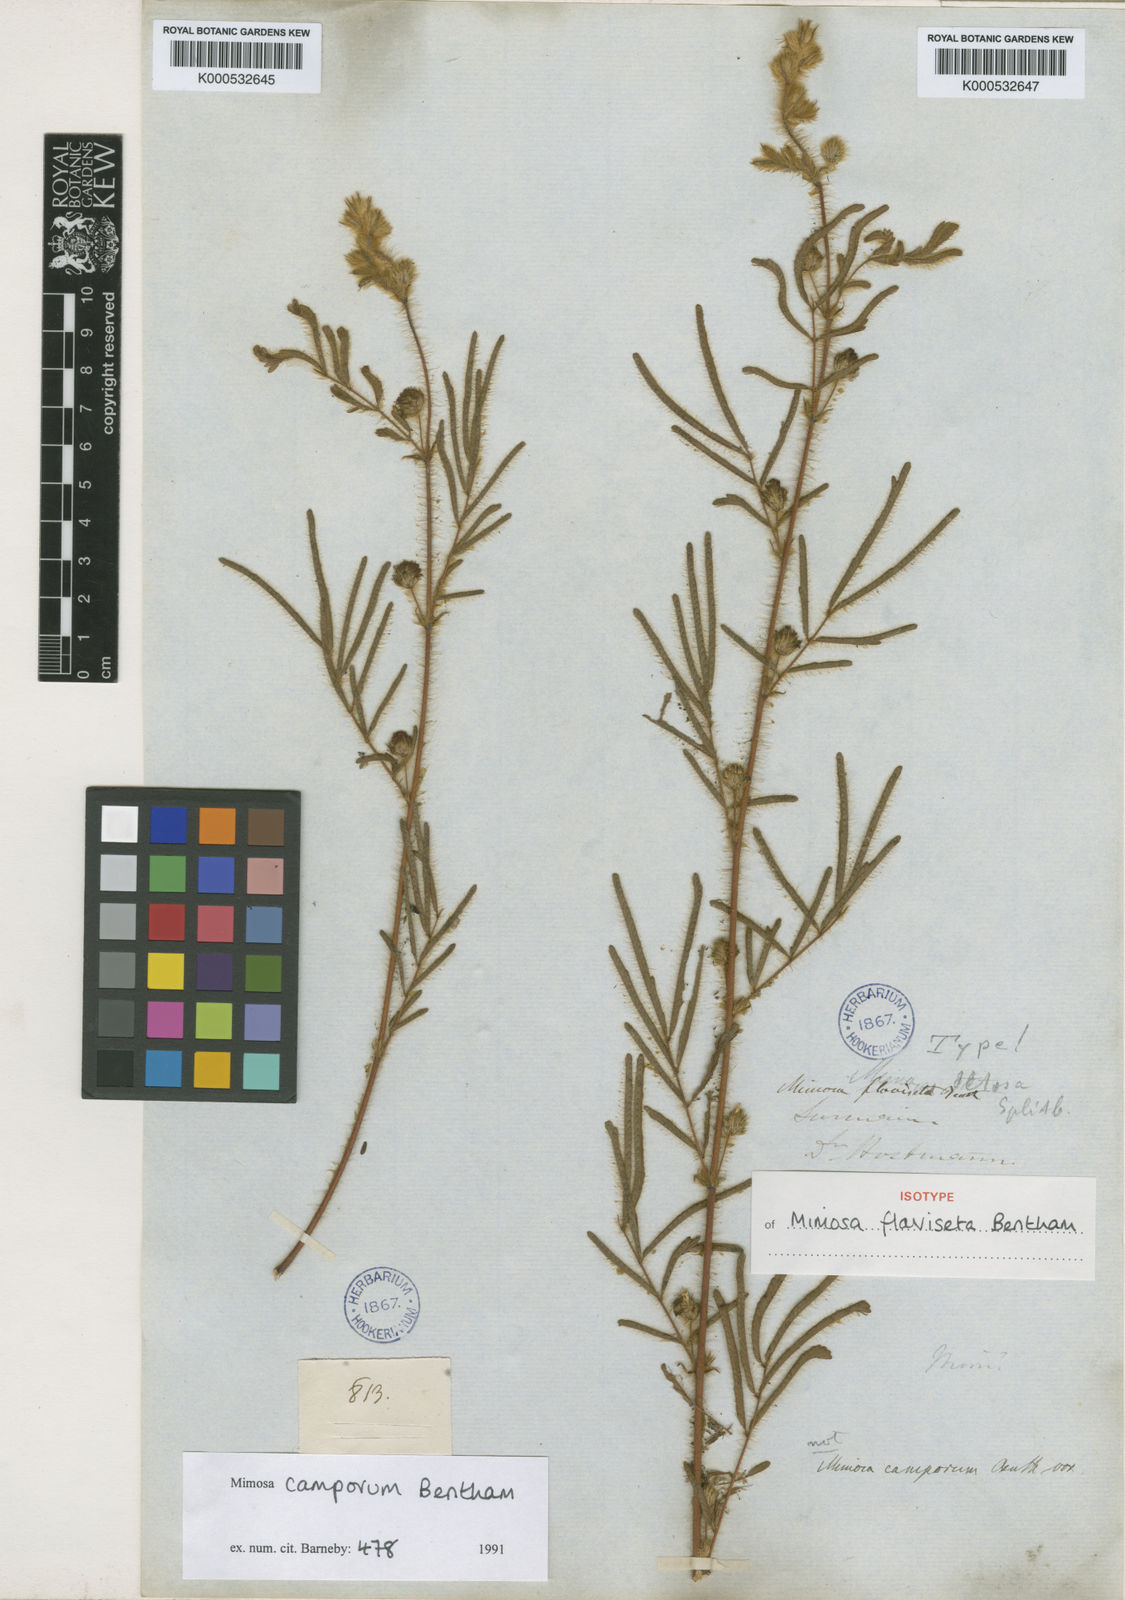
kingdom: Plantae
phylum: Tracheophyta
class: Magnoliopsida
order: Fabales
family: Fabaceae
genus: Mimosa
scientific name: Mimosa camporum
